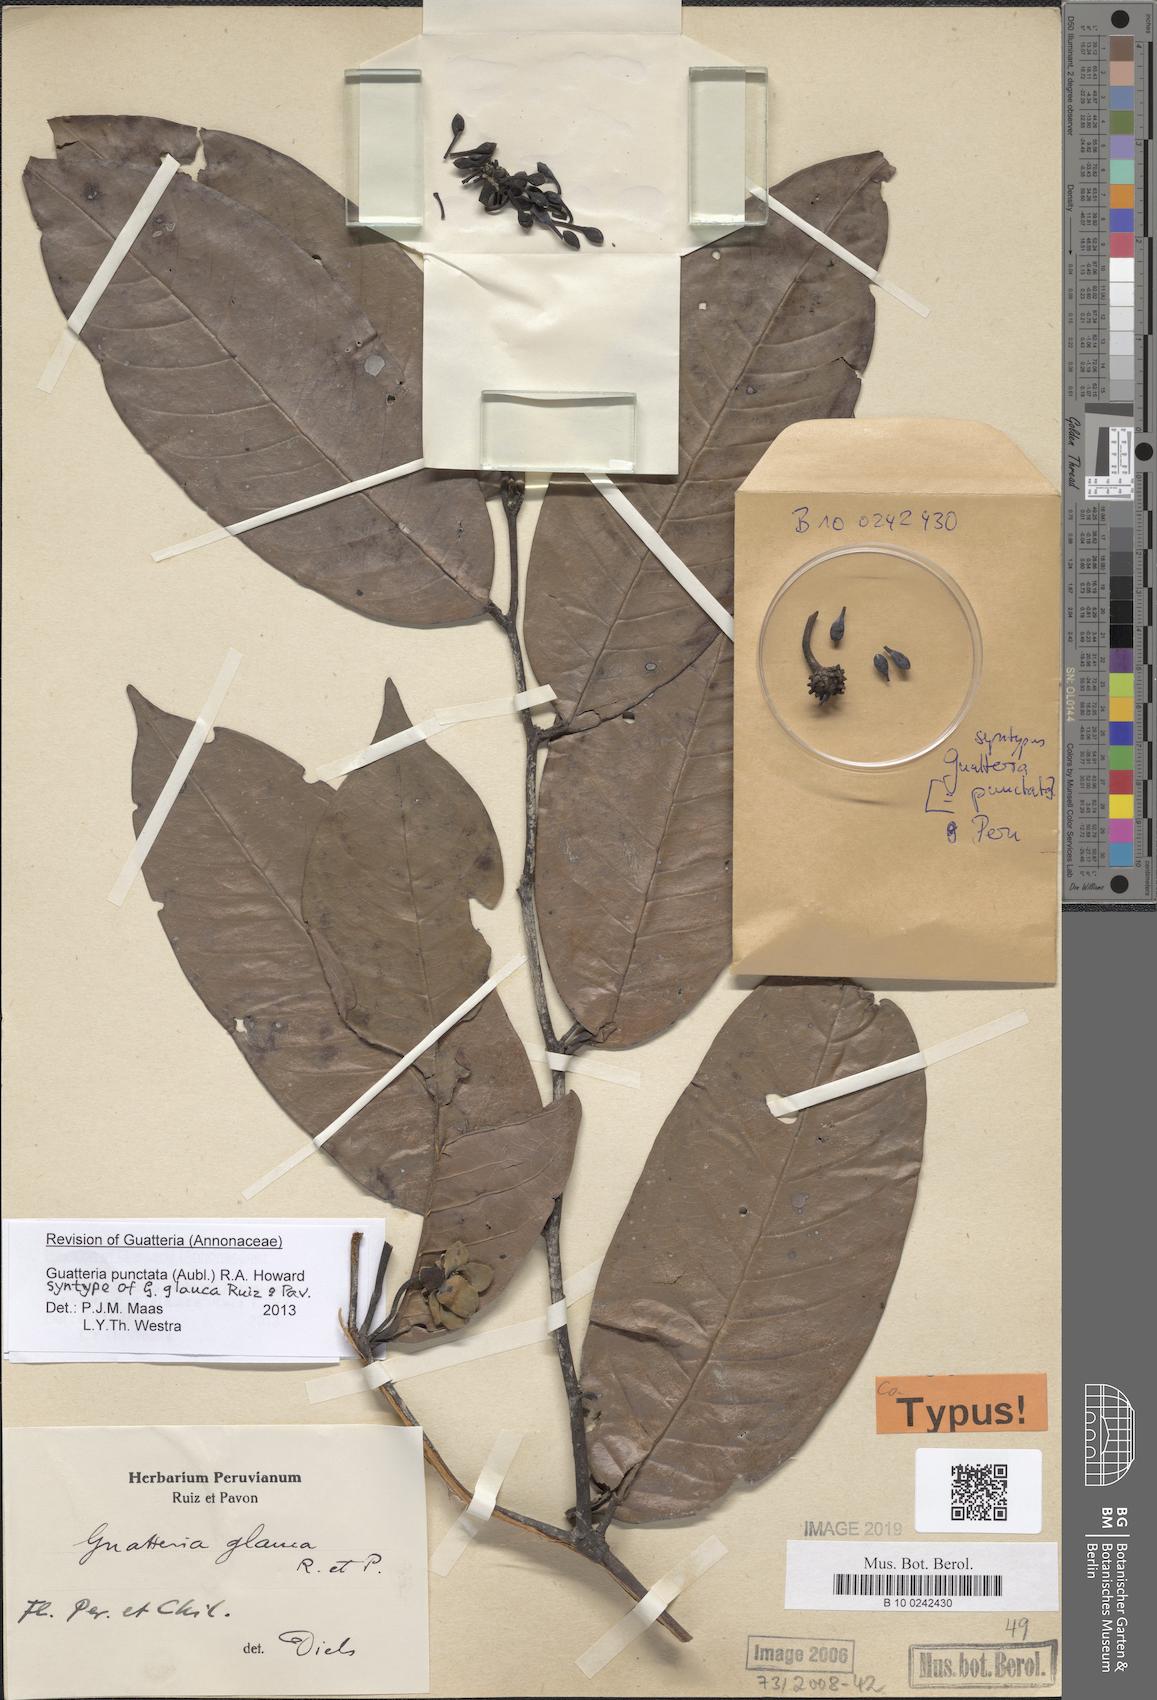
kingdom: Plantae
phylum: Tracheophyta
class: Magnoliopsida
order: Magnoliales
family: Annonaceae
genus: Guatteria
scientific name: Guatteria punctata
